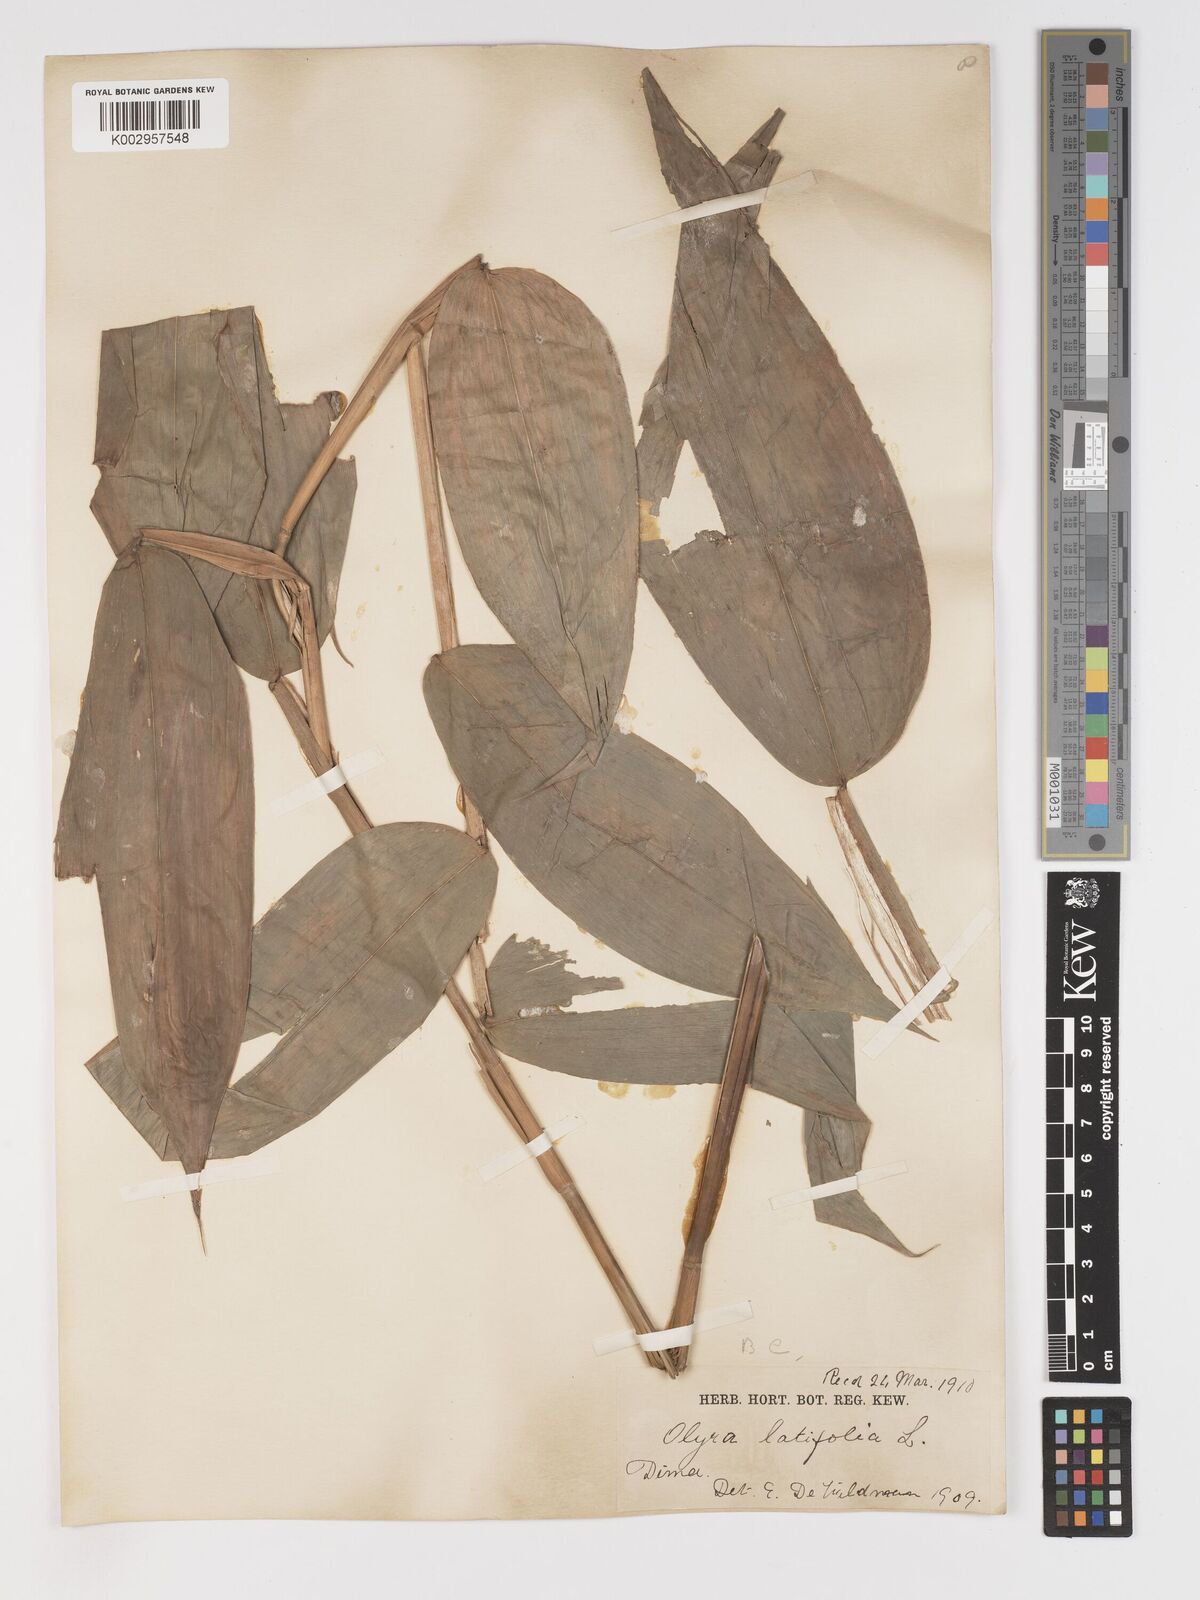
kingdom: Plantae
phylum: Tracheophyta
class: Liliopsida
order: Poales
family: Poaceae
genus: Olyra
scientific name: Olyra latifolia
